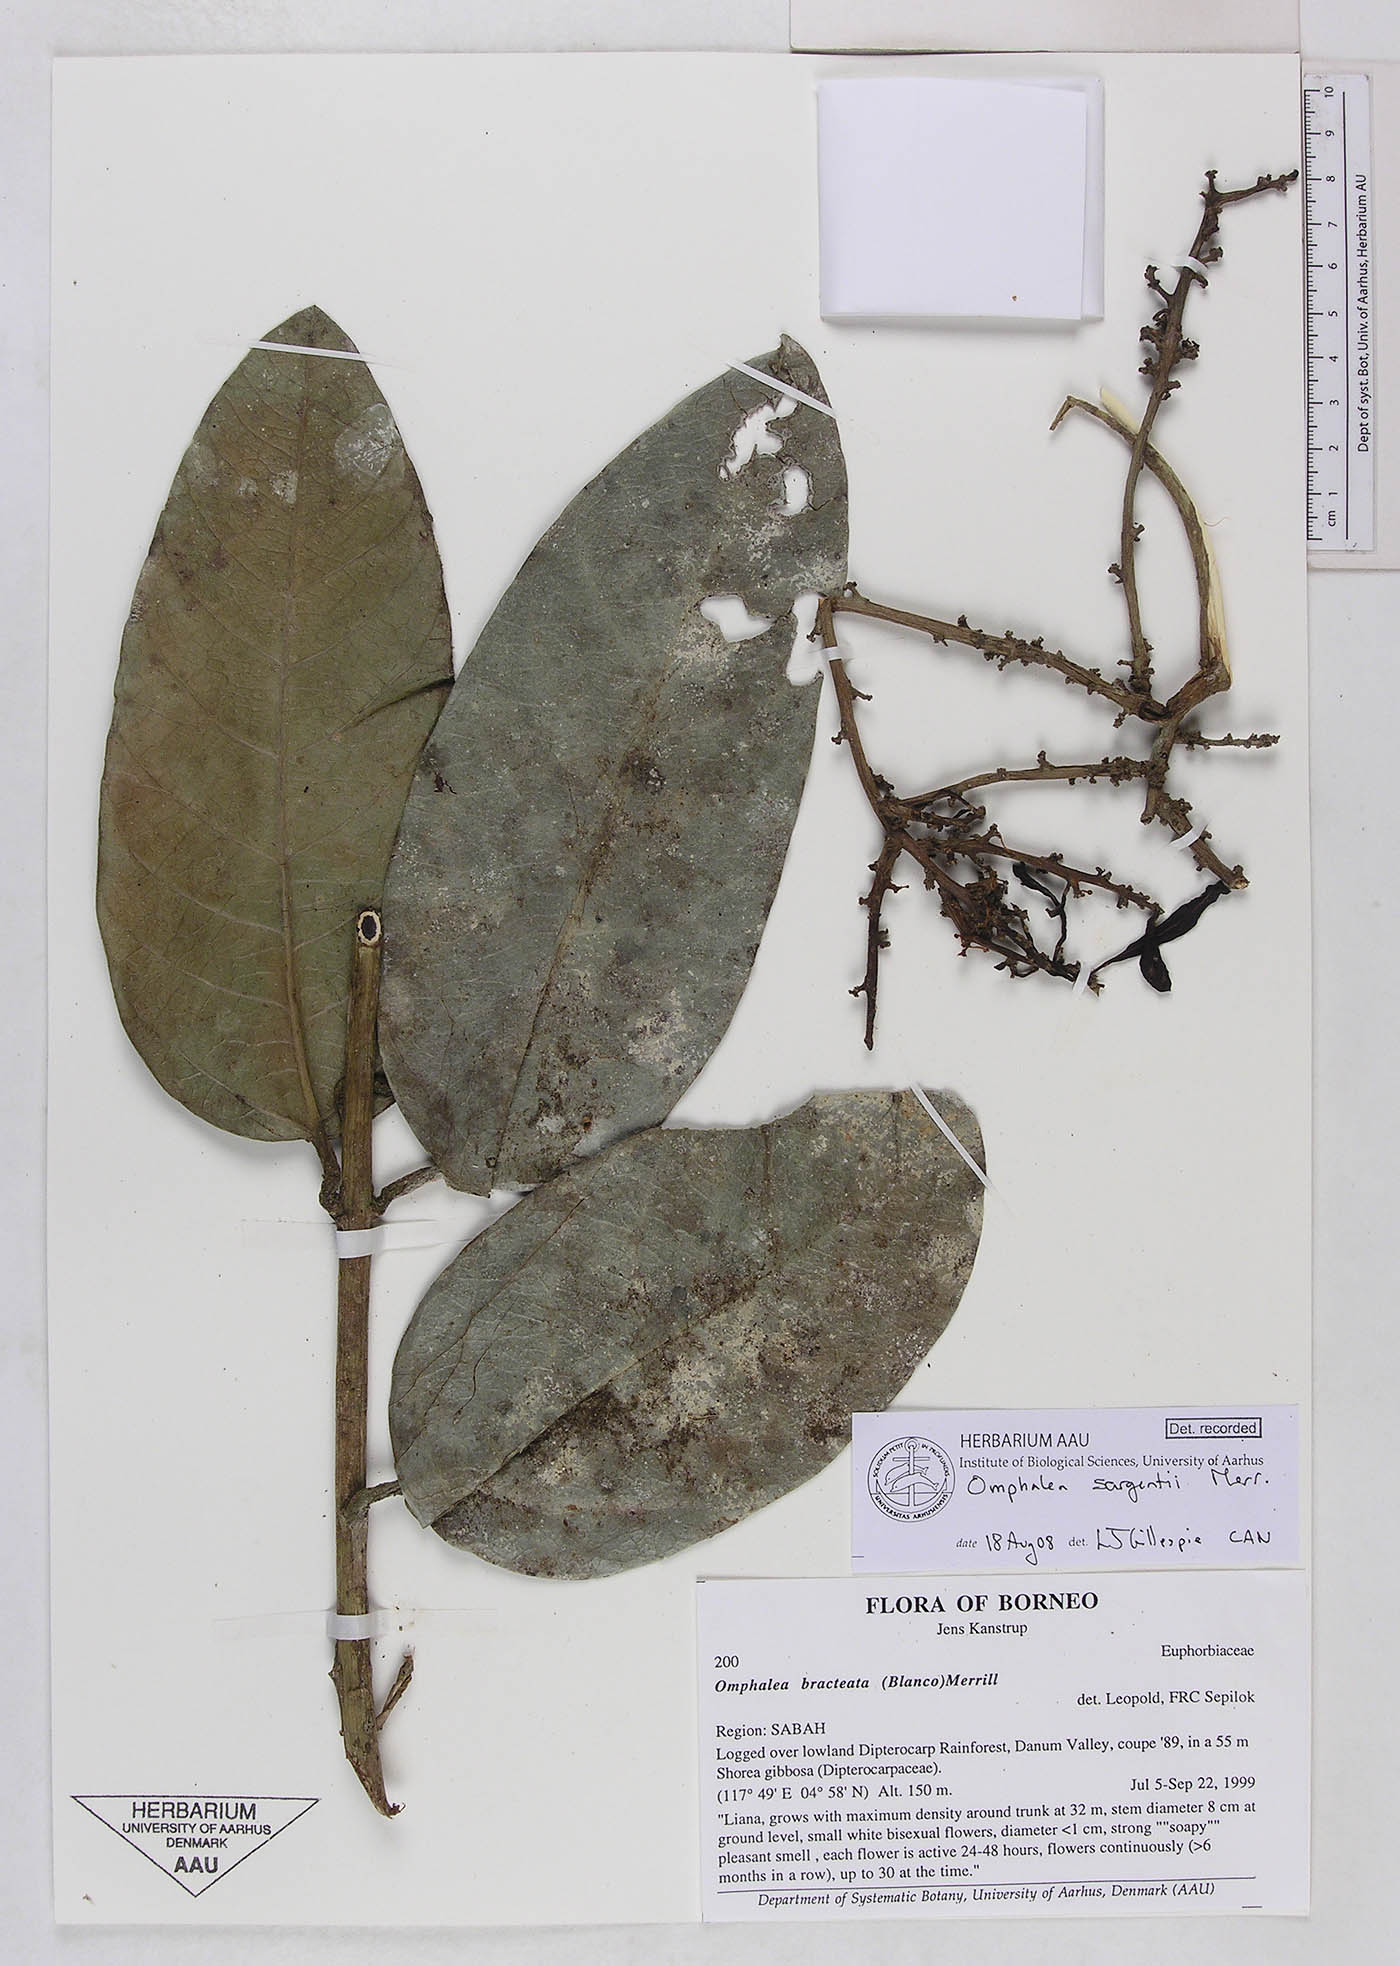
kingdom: Plantae
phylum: Tracheophyta
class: Magnoliopsida
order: Malpighiales
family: Euphorbiaceae
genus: Omphalea
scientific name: Omphalea sargentii
